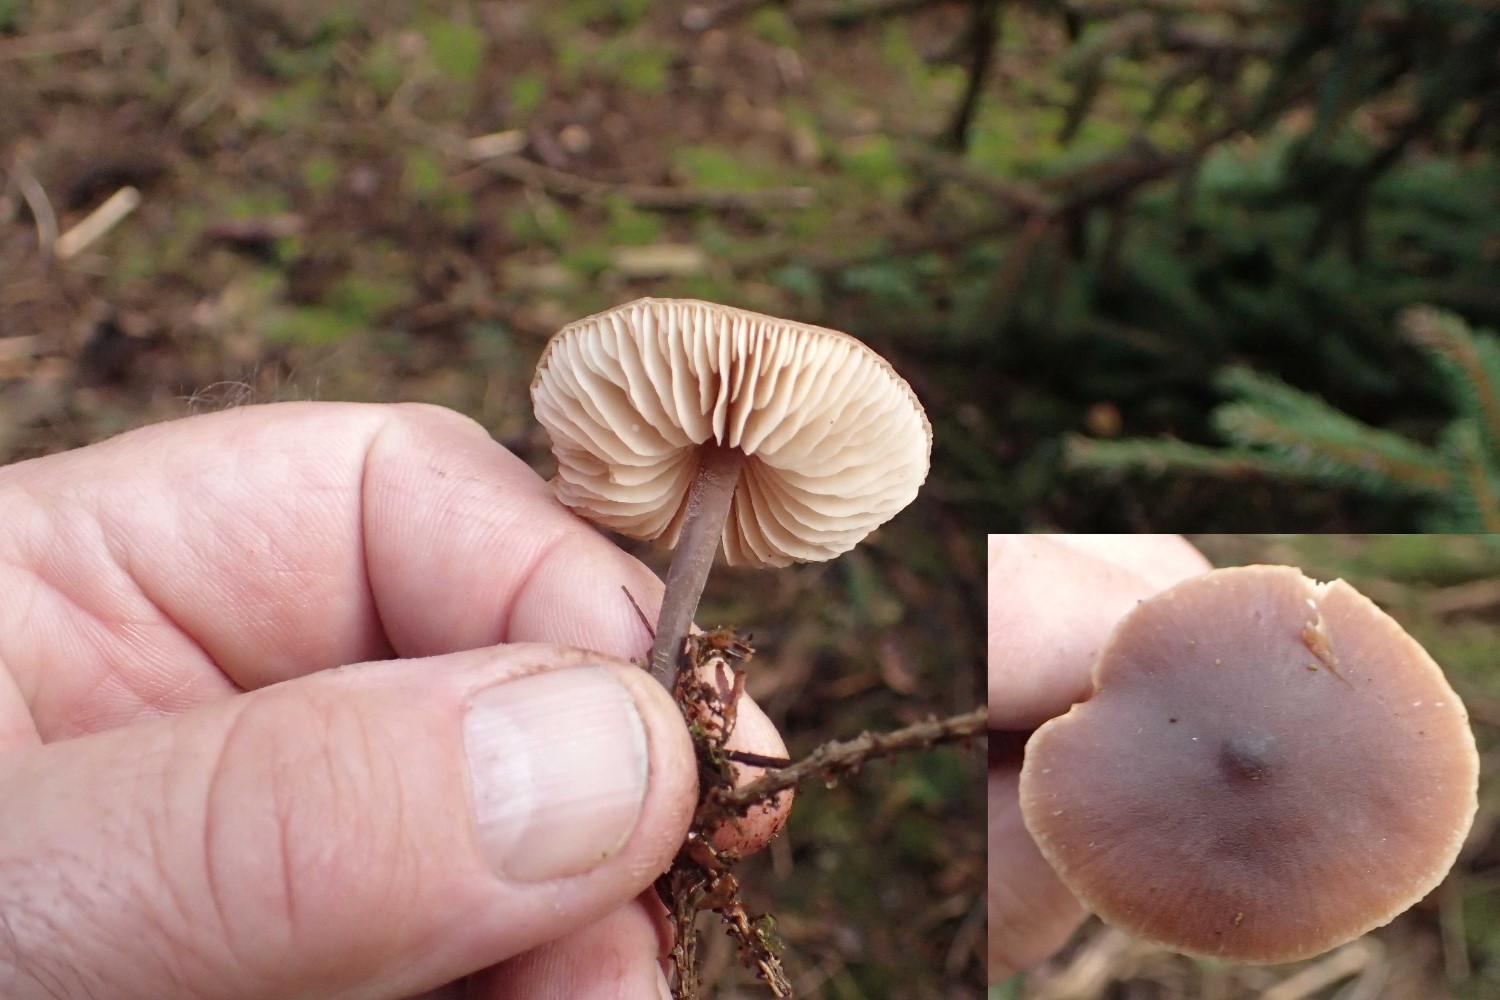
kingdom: Fungi
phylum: Basidiomycota
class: Agaricomycetes
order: Agaricales
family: Macrocystidiaceae
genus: Macrocystidia
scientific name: Macrocystidia cucumis
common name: agurkehat
